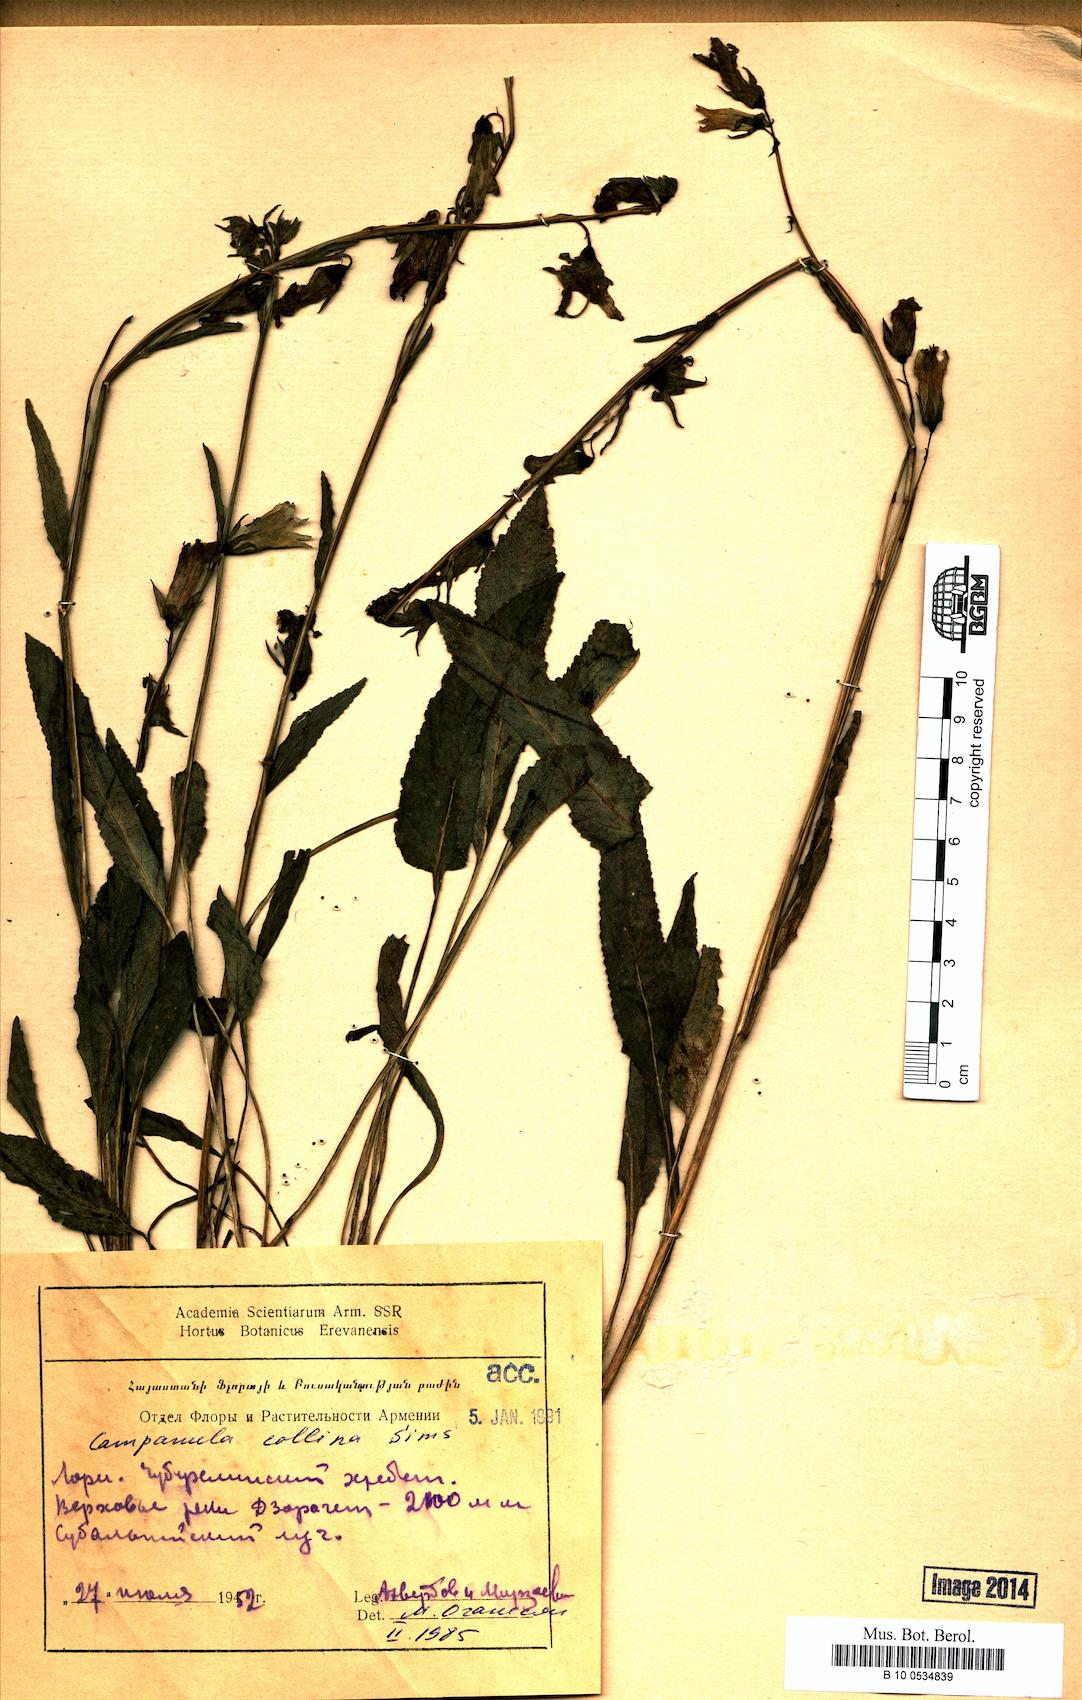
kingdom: Plantae
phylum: Tracheophyta
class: Magnoliopsida
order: Asterales
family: Campanulaceae
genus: Campanula
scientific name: Campanula collina
